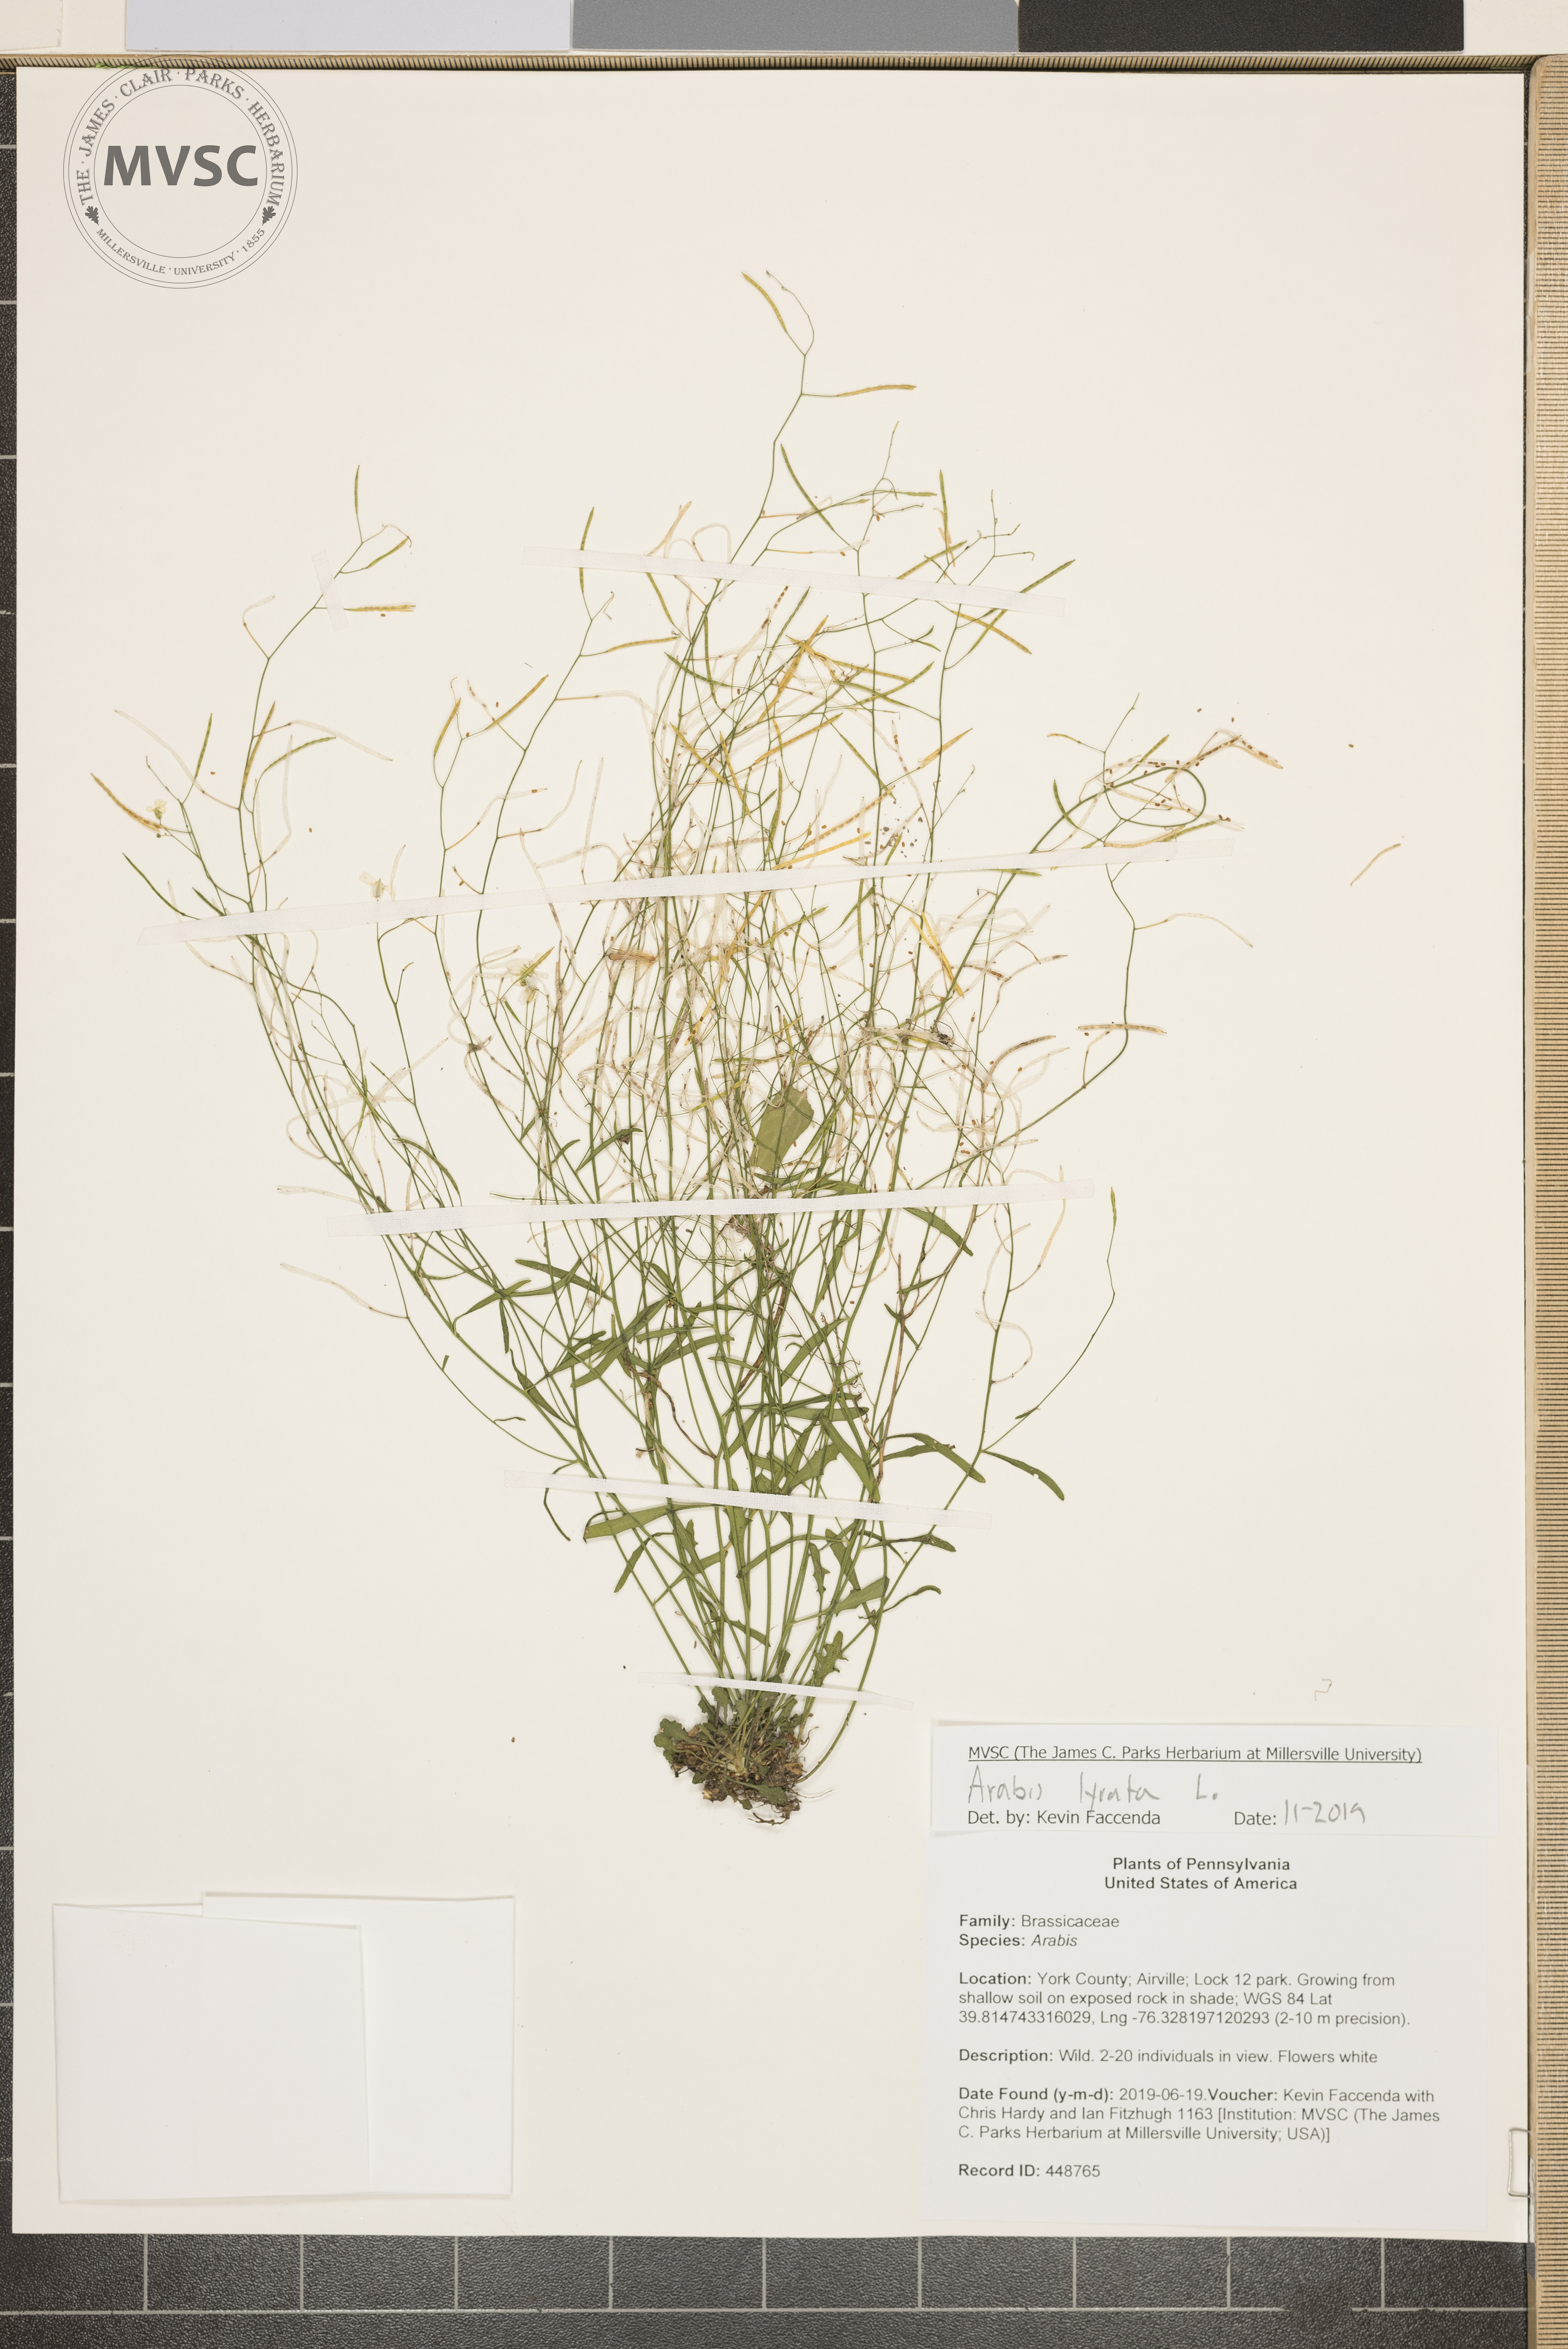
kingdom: Plantae
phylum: Tracheophyta
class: Magnoliopsida
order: Brassicales
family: Brassicaceae
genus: Arabidopsis
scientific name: Arabidopsis lyrata
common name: Lyrate rockcress
